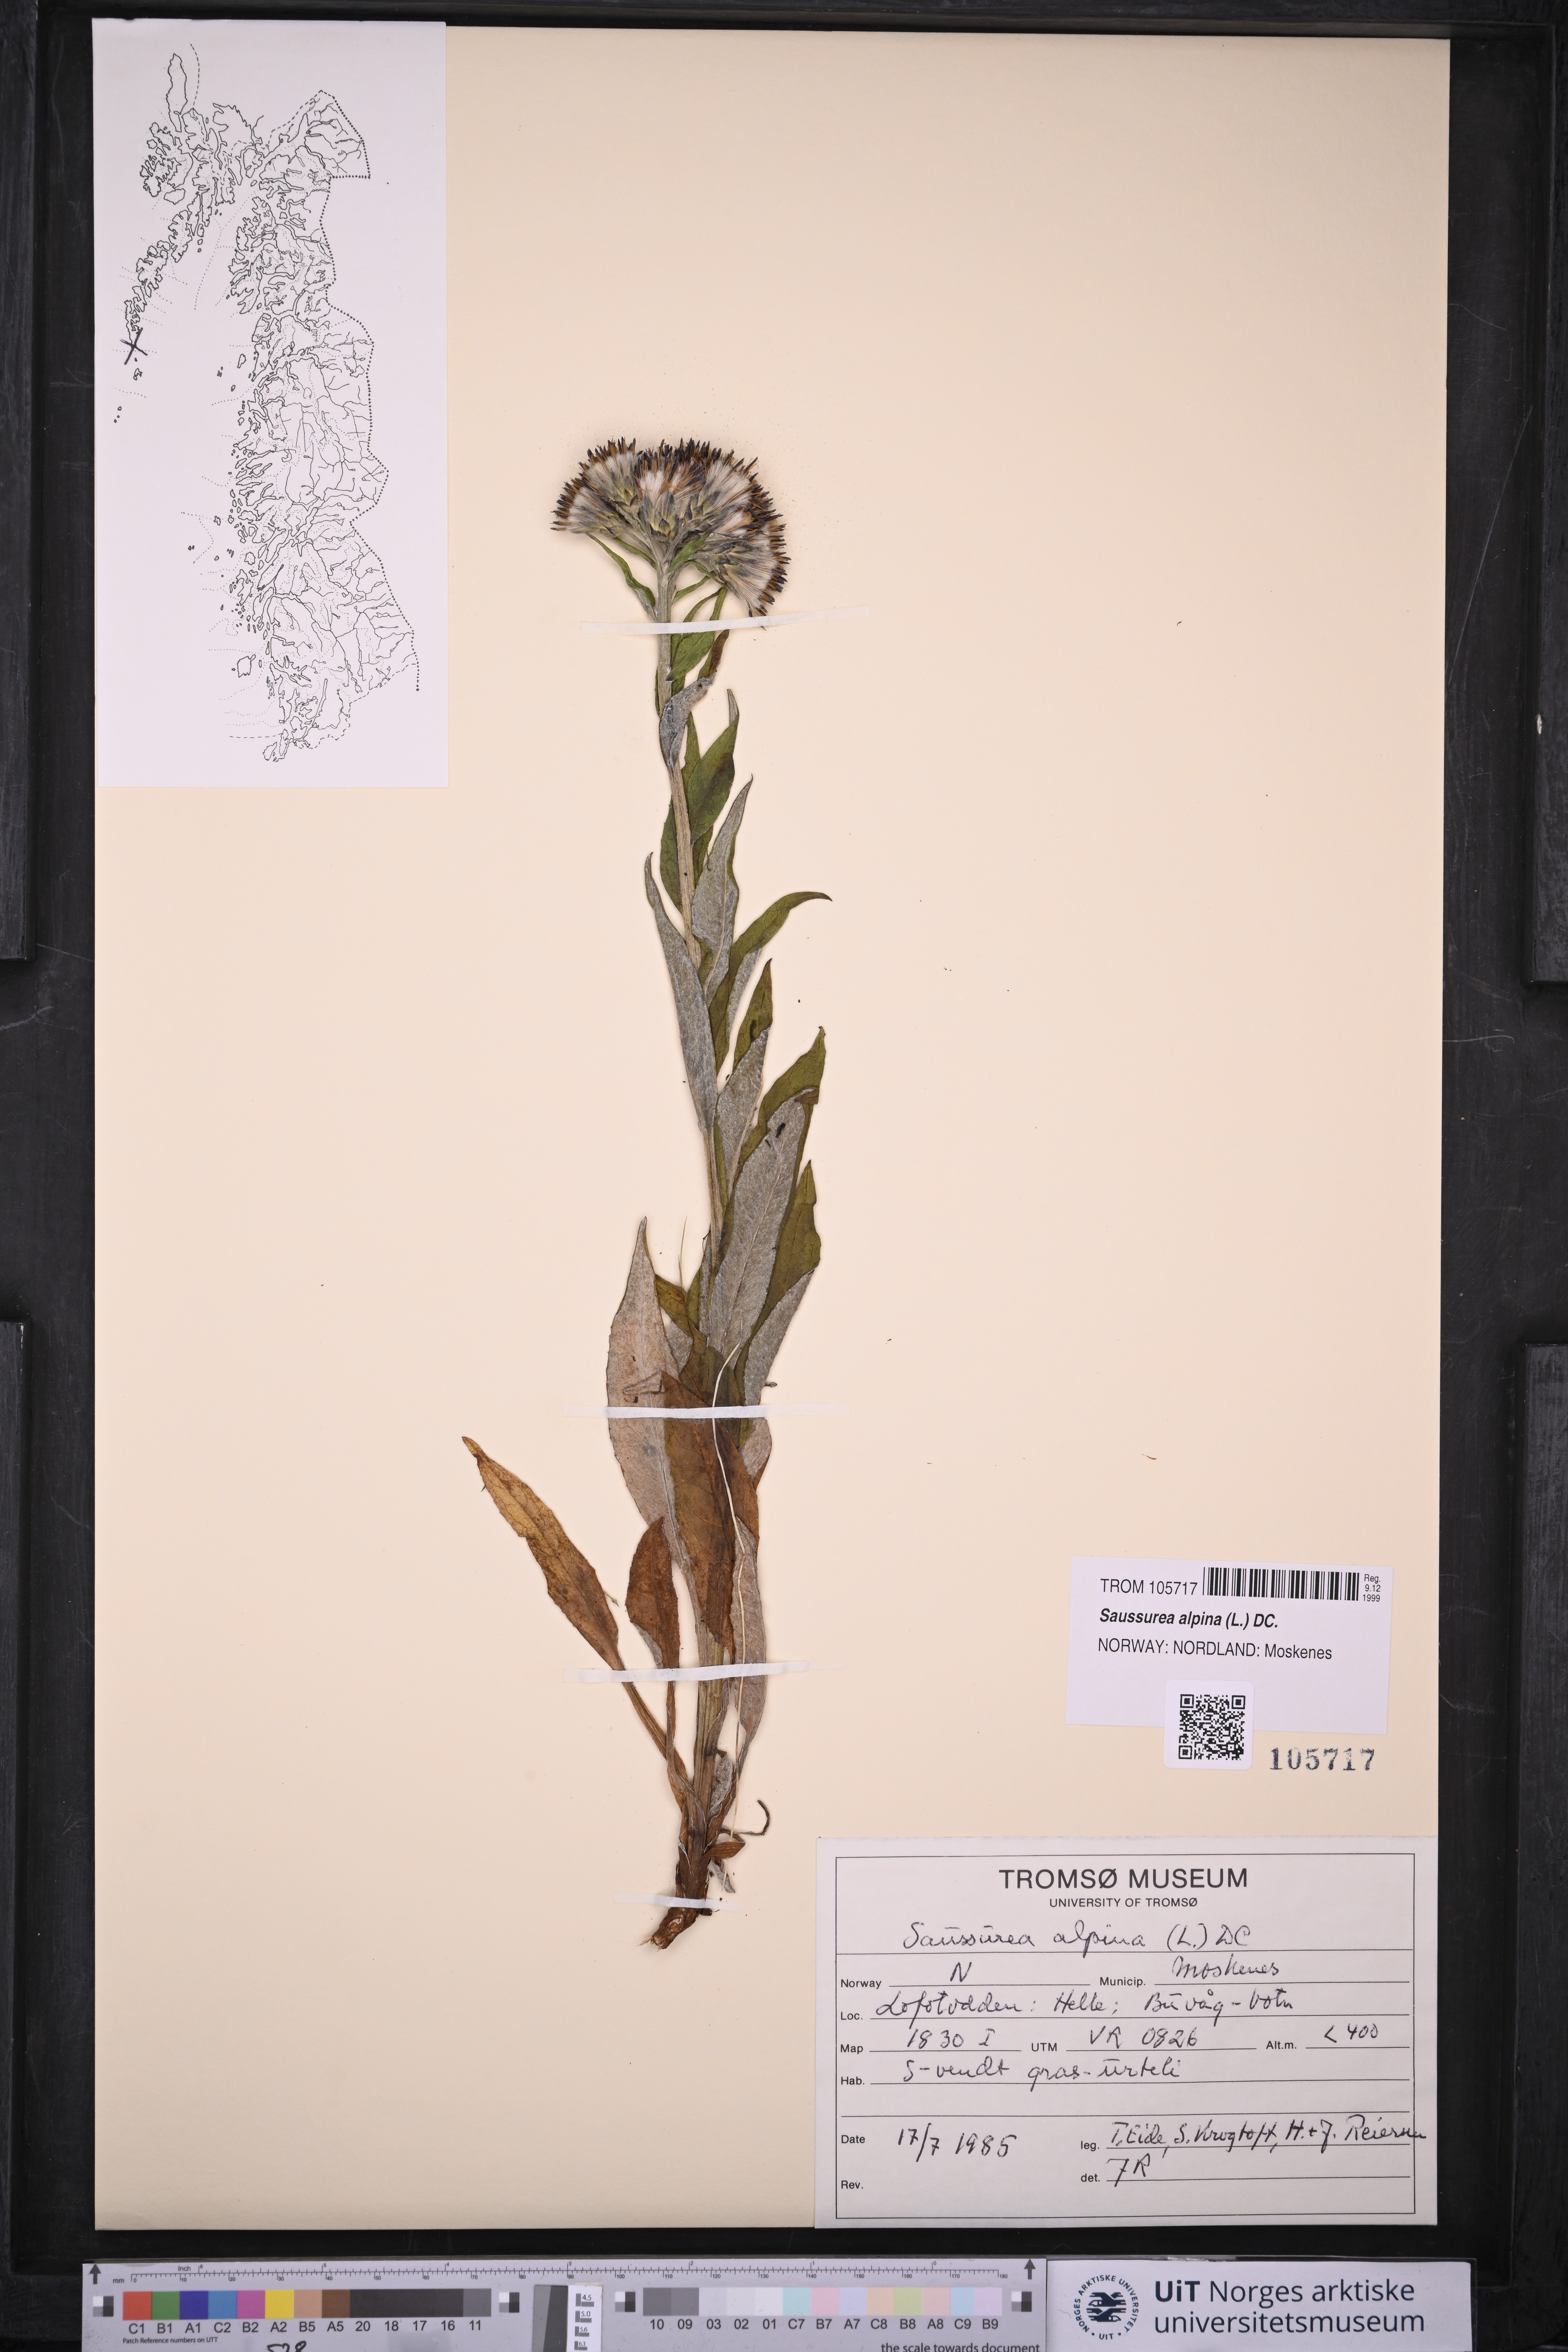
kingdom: Plantae
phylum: Tracheophyta
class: Magnoliopsida
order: Asterales
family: Asteraceae
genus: Saussurea
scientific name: Saussurea alpina
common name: Alpine saw-wort
